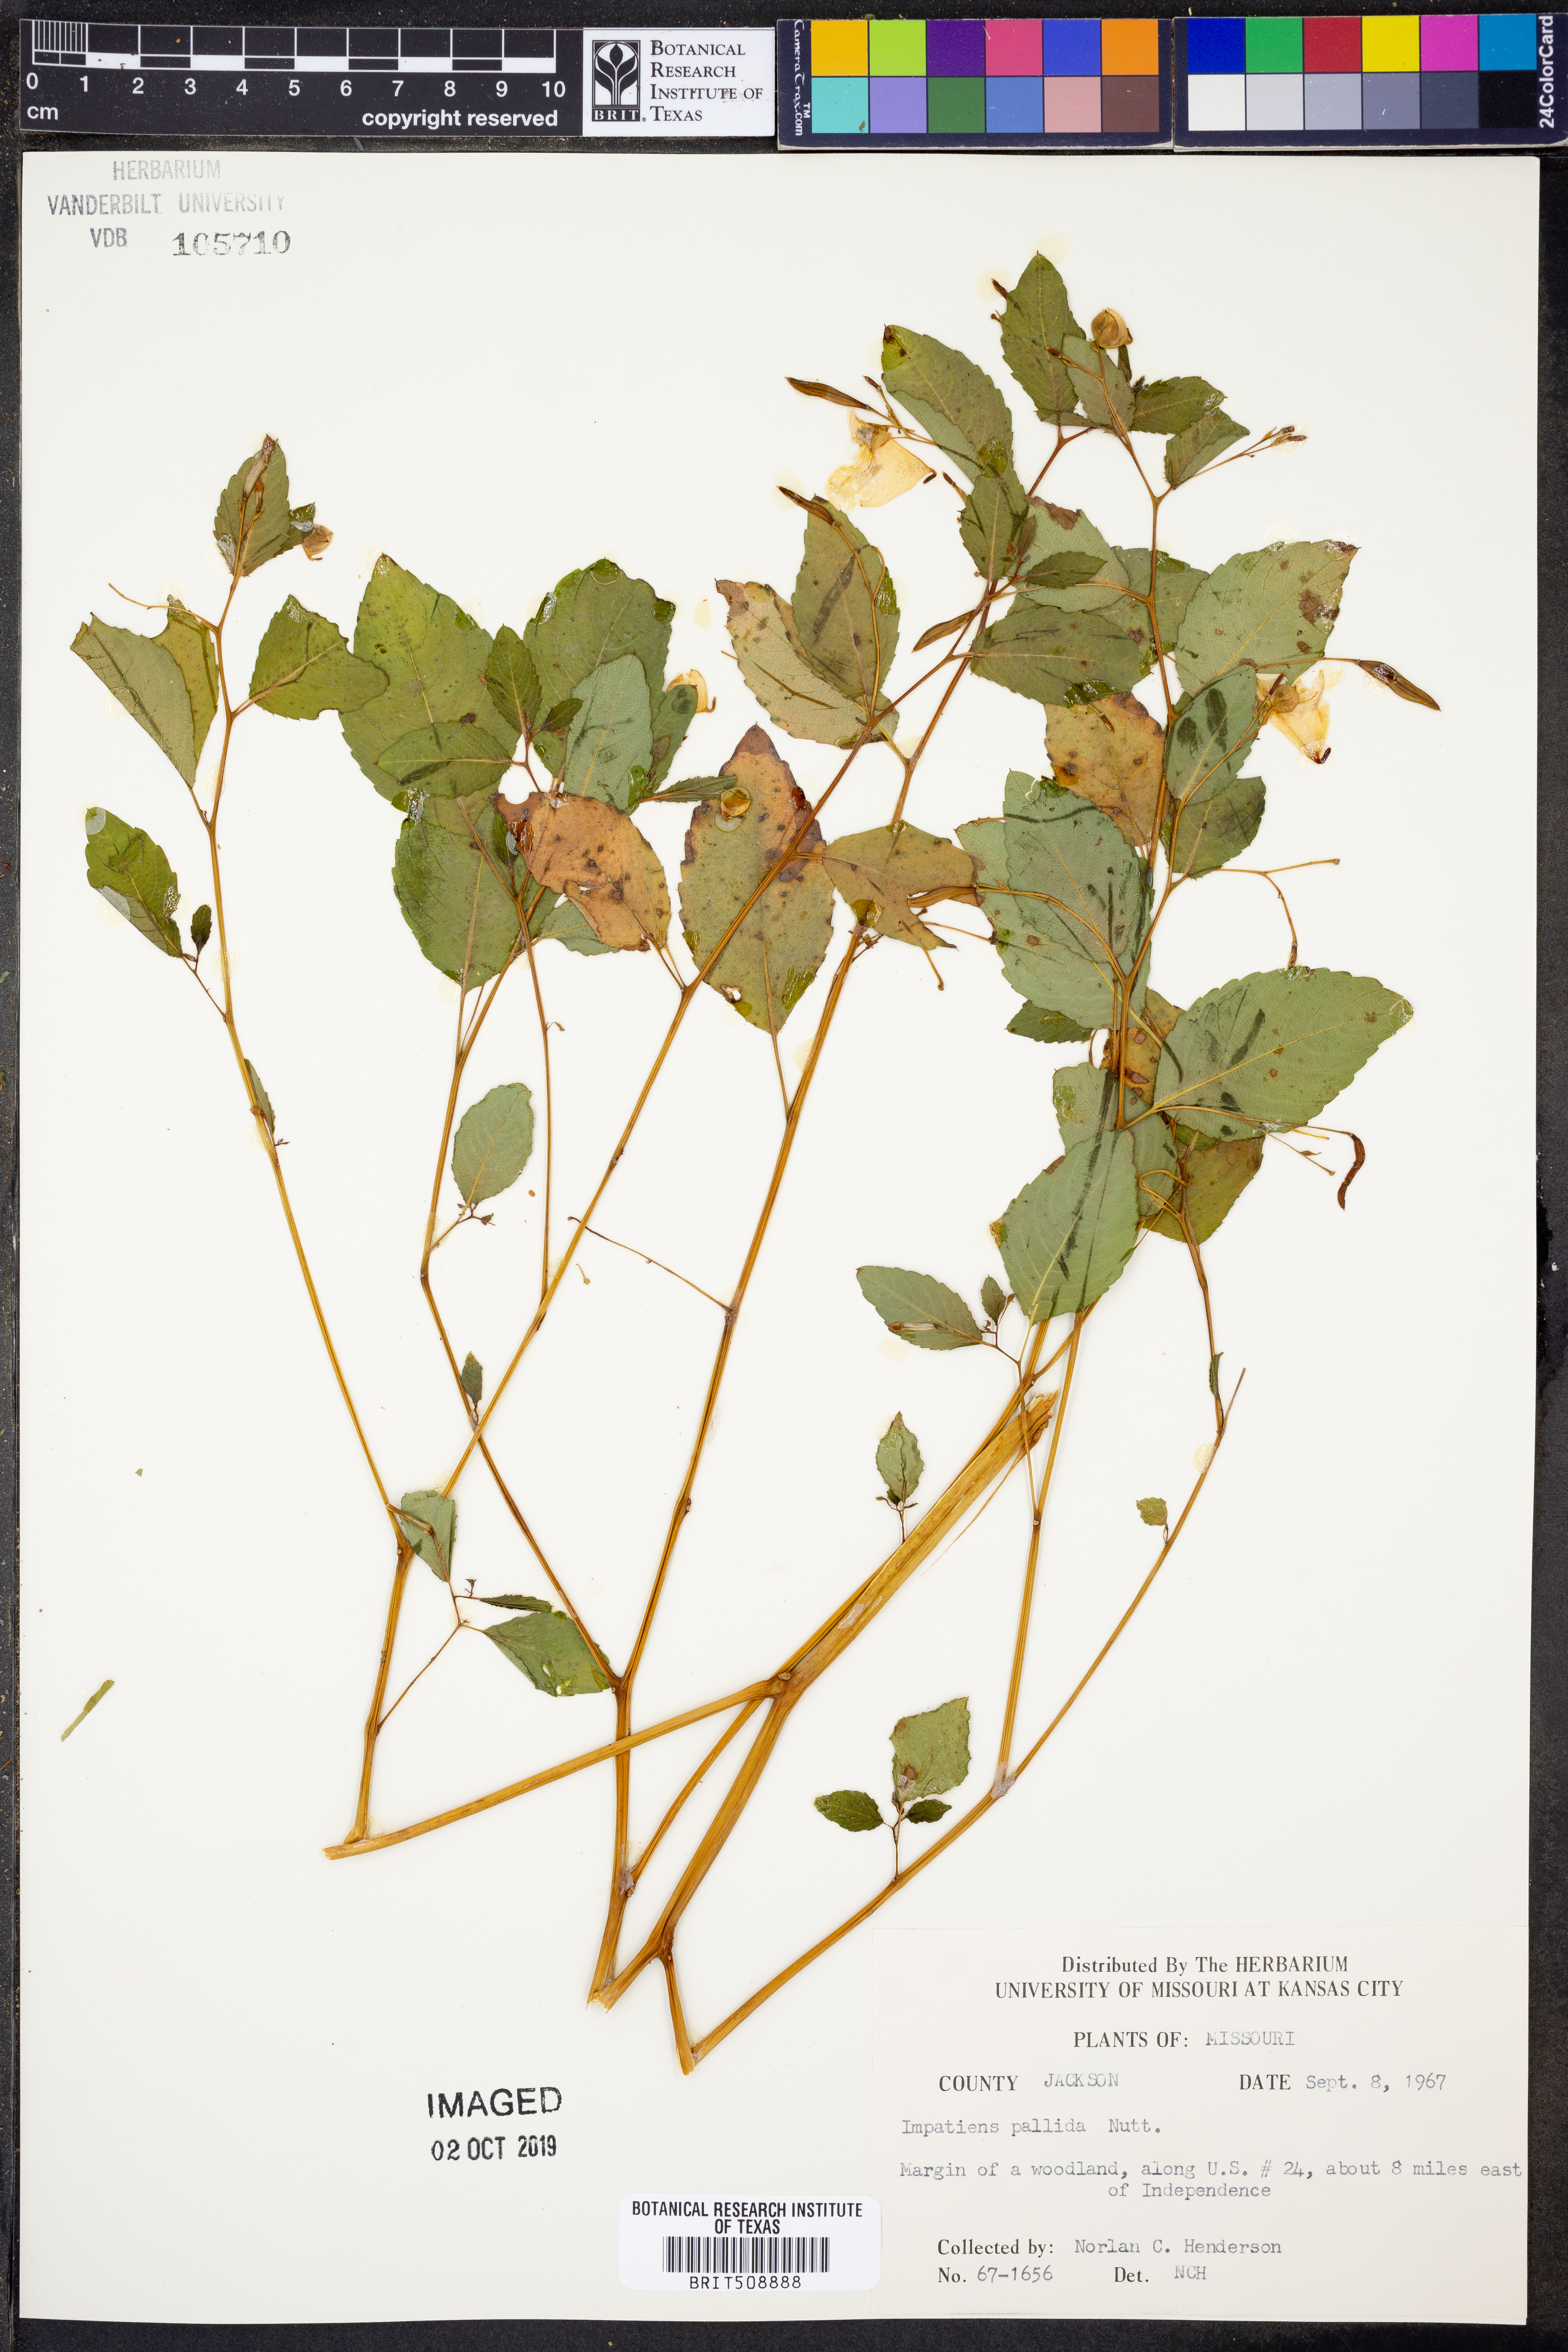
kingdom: Plantae
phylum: Tracheophyta
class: Magnoliopsida
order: Ericales
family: Balsaminaceae
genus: Impatiens
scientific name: Impatiens pallida
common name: Pale snapweed
